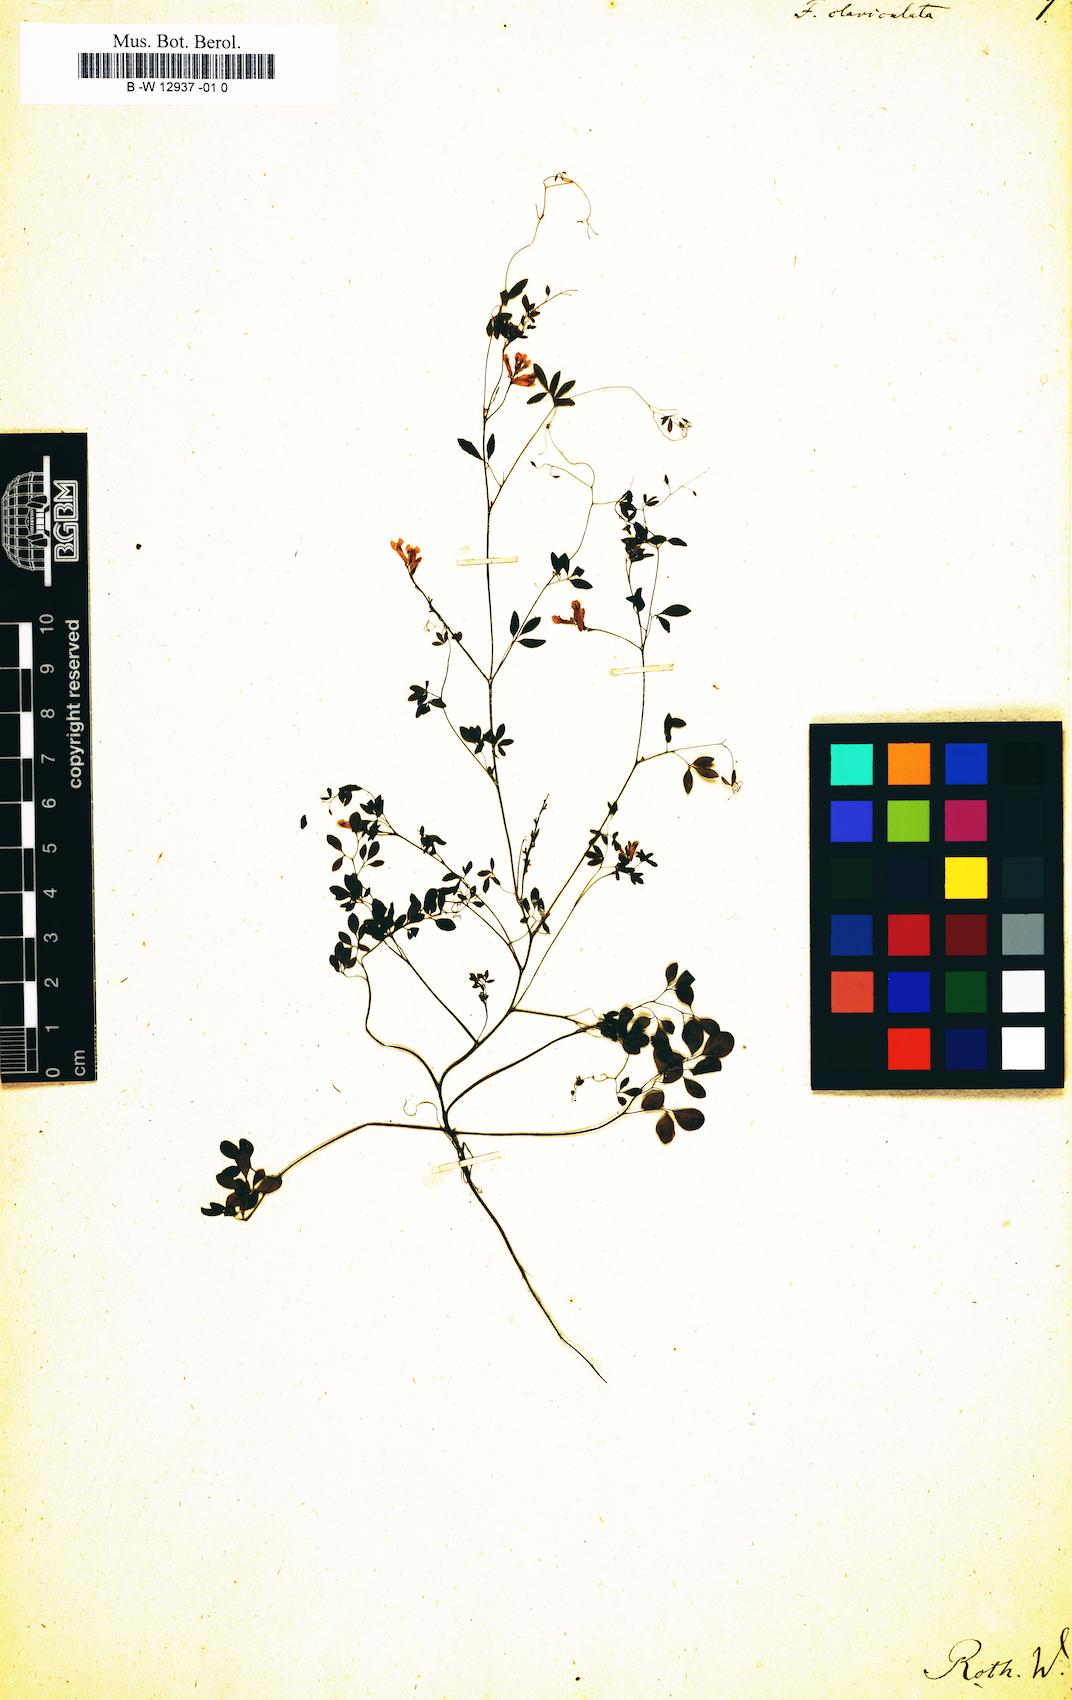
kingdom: Plantae
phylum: Tracheophyta
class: Magnoliopsida
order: Ranunculales
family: Papaveraceae
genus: Ceratocapnos
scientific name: Ceratocapnos claviculata
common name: Climbing corydalis
